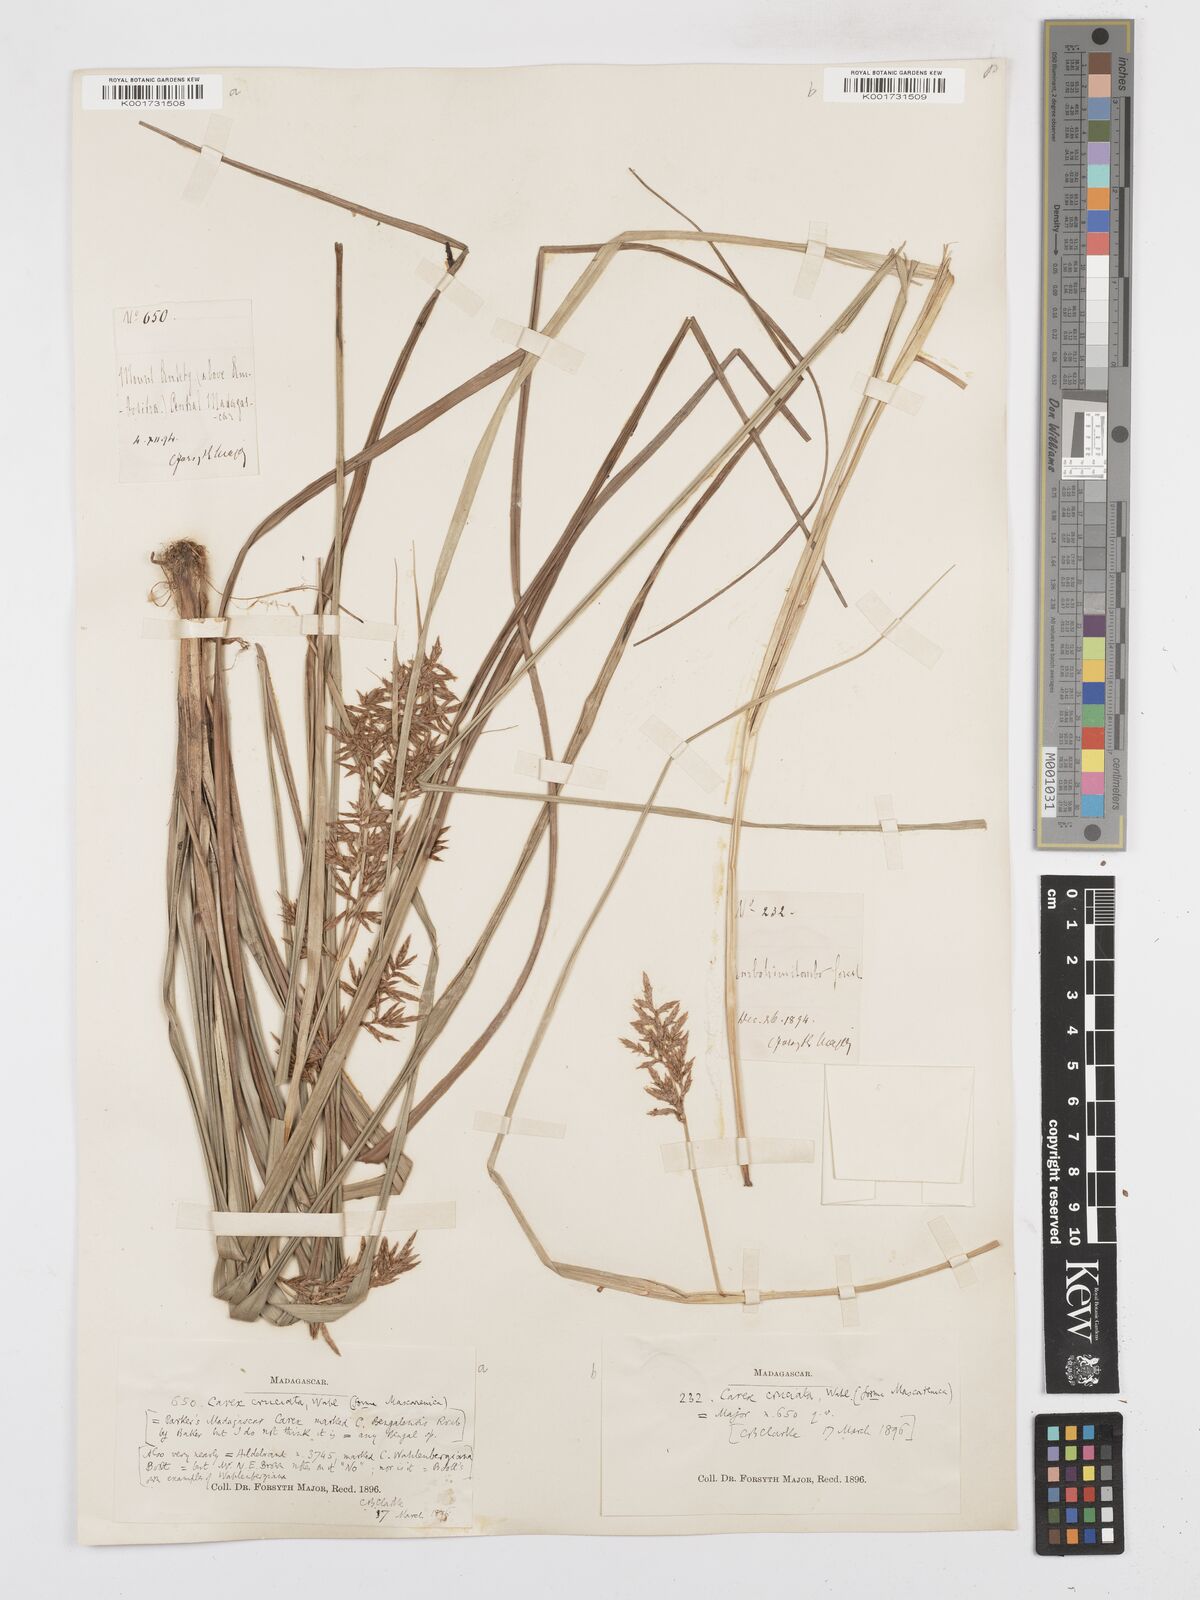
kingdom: Plantae
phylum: Tracheophyta
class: Liliopsida
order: Poales
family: Cyperaceae
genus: Carex
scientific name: Carex pyramidalis
